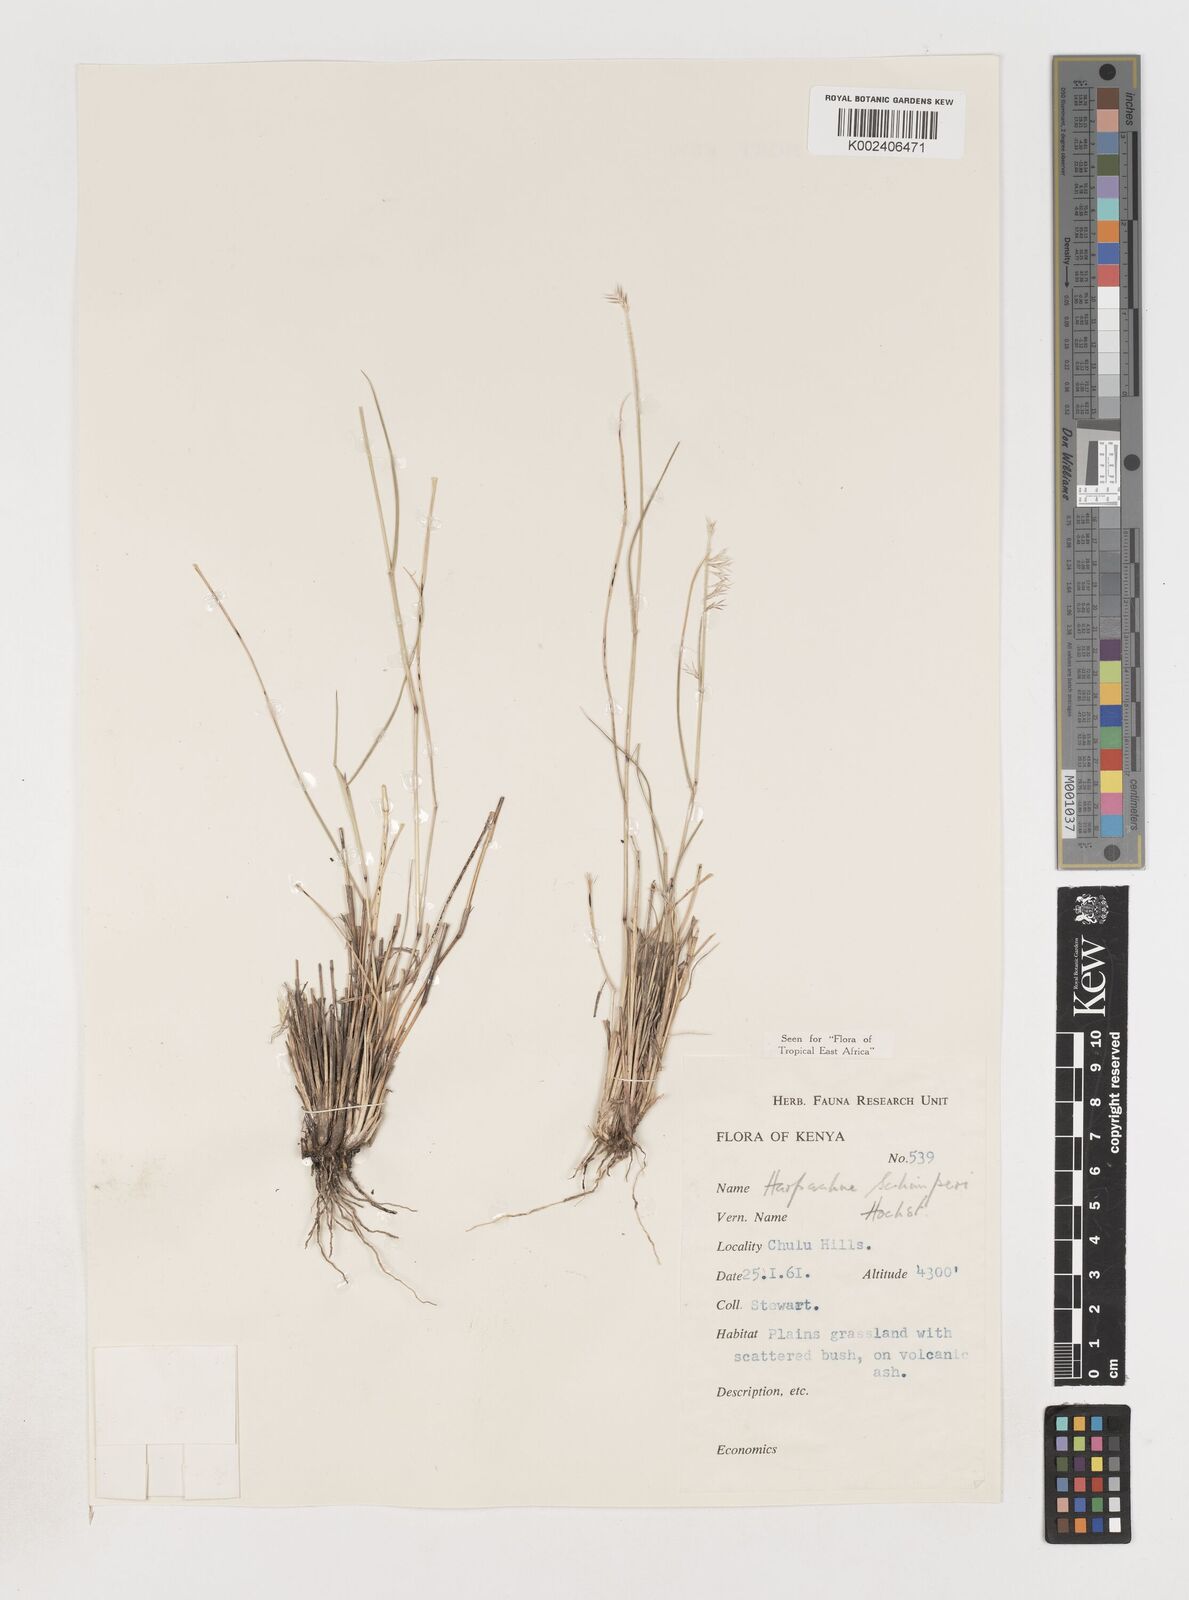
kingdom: Plantae
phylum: Tracheophyta
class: Liliopsida
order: Poales
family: Poaceae
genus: Harpachne
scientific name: Harpachne schimperi
